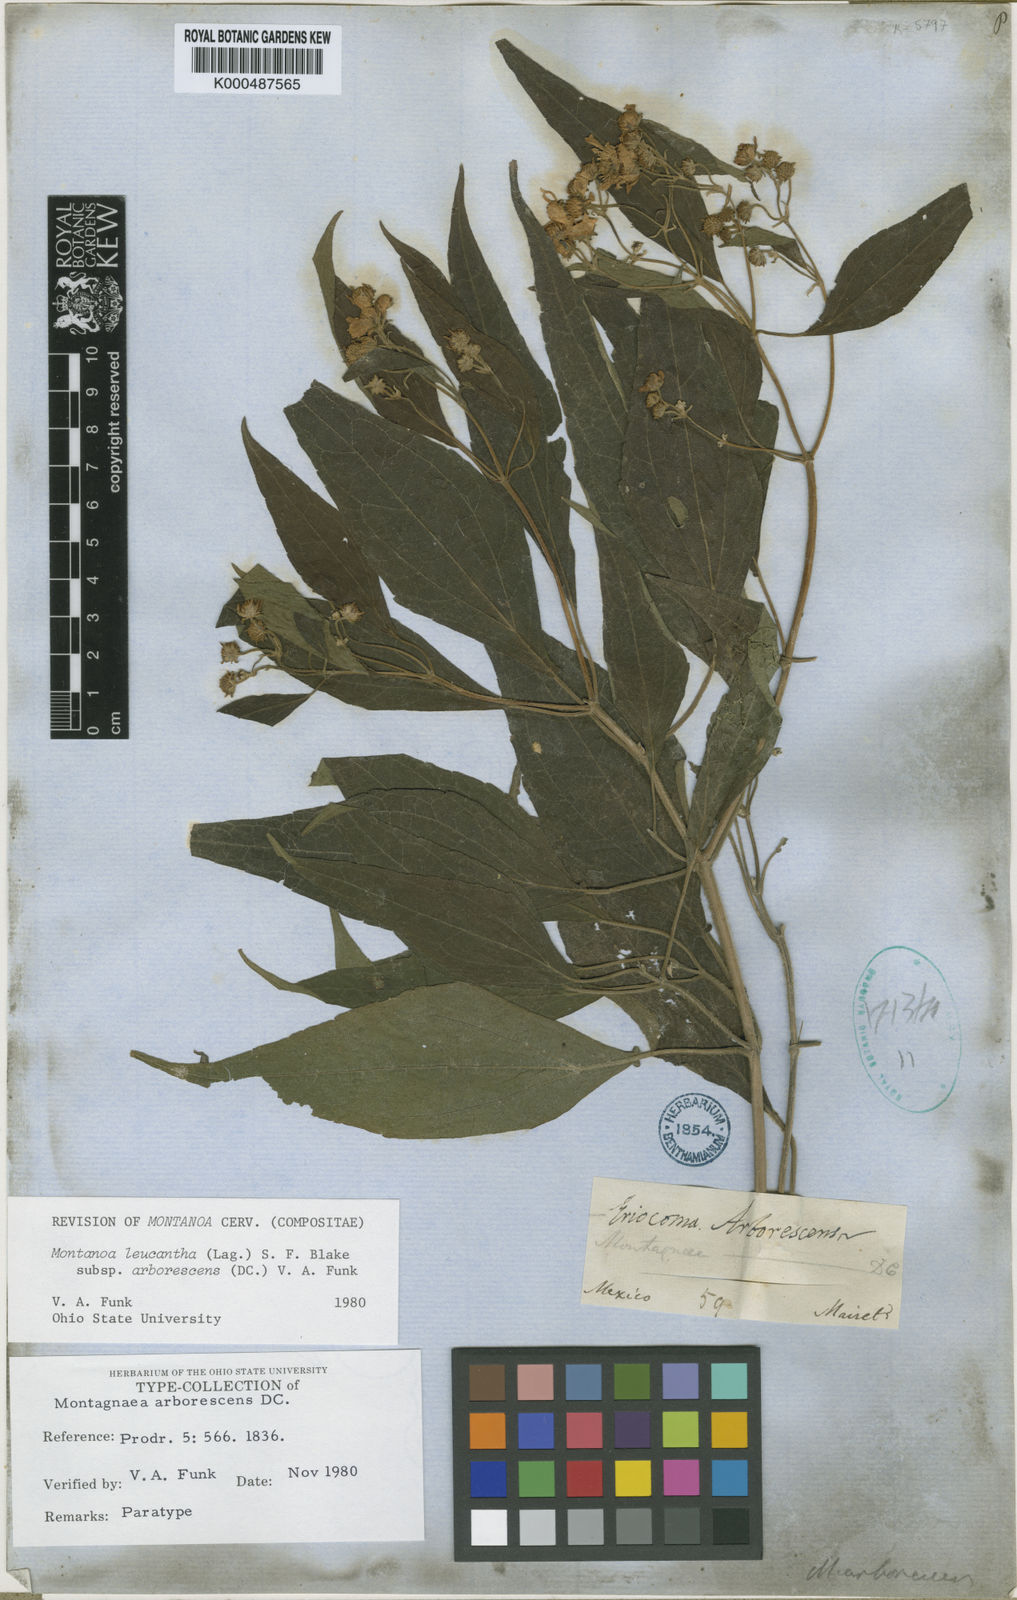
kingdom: Plantae
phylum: Tracheophyta
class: Magnoliopsida
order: Asterales
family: Asteraceae
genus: Montanoa
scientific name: Montanoa leucantha
